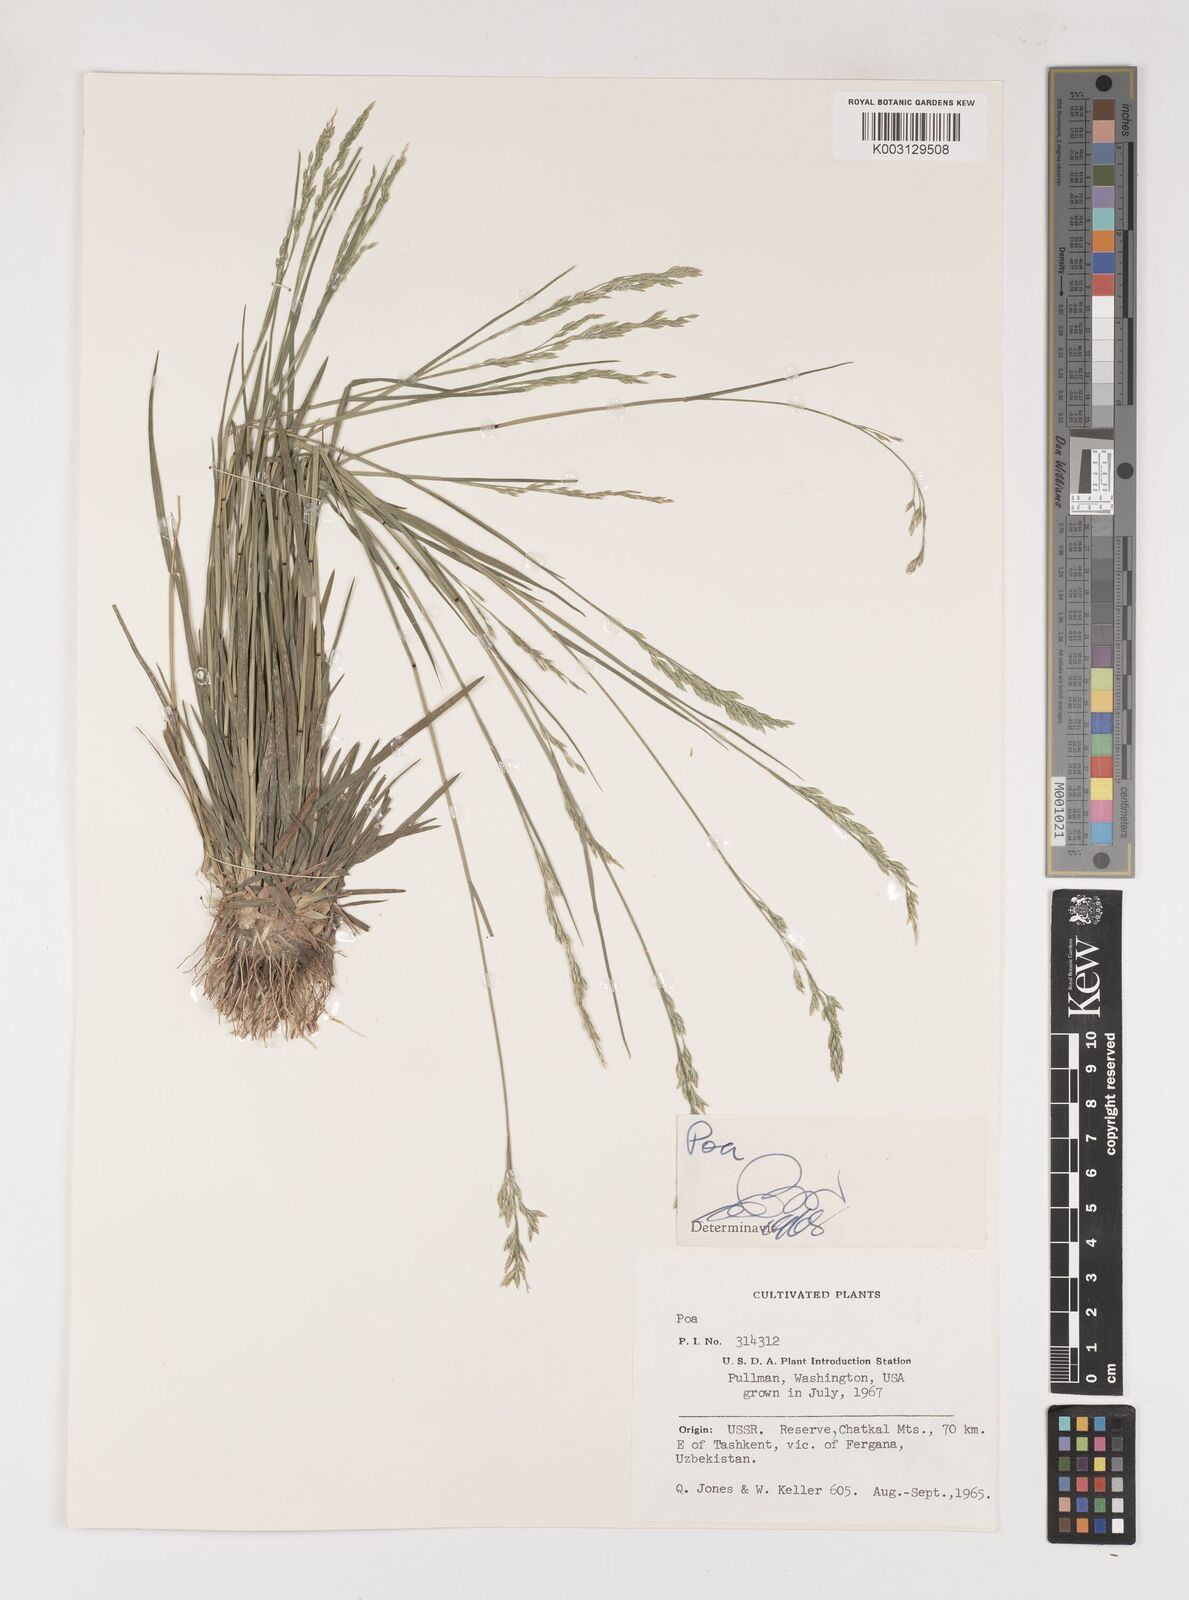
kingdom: Plantae
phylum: Tracheophyta
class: Liliopsida
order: Poales
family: Poaceae
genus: Poa
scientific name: Poa
